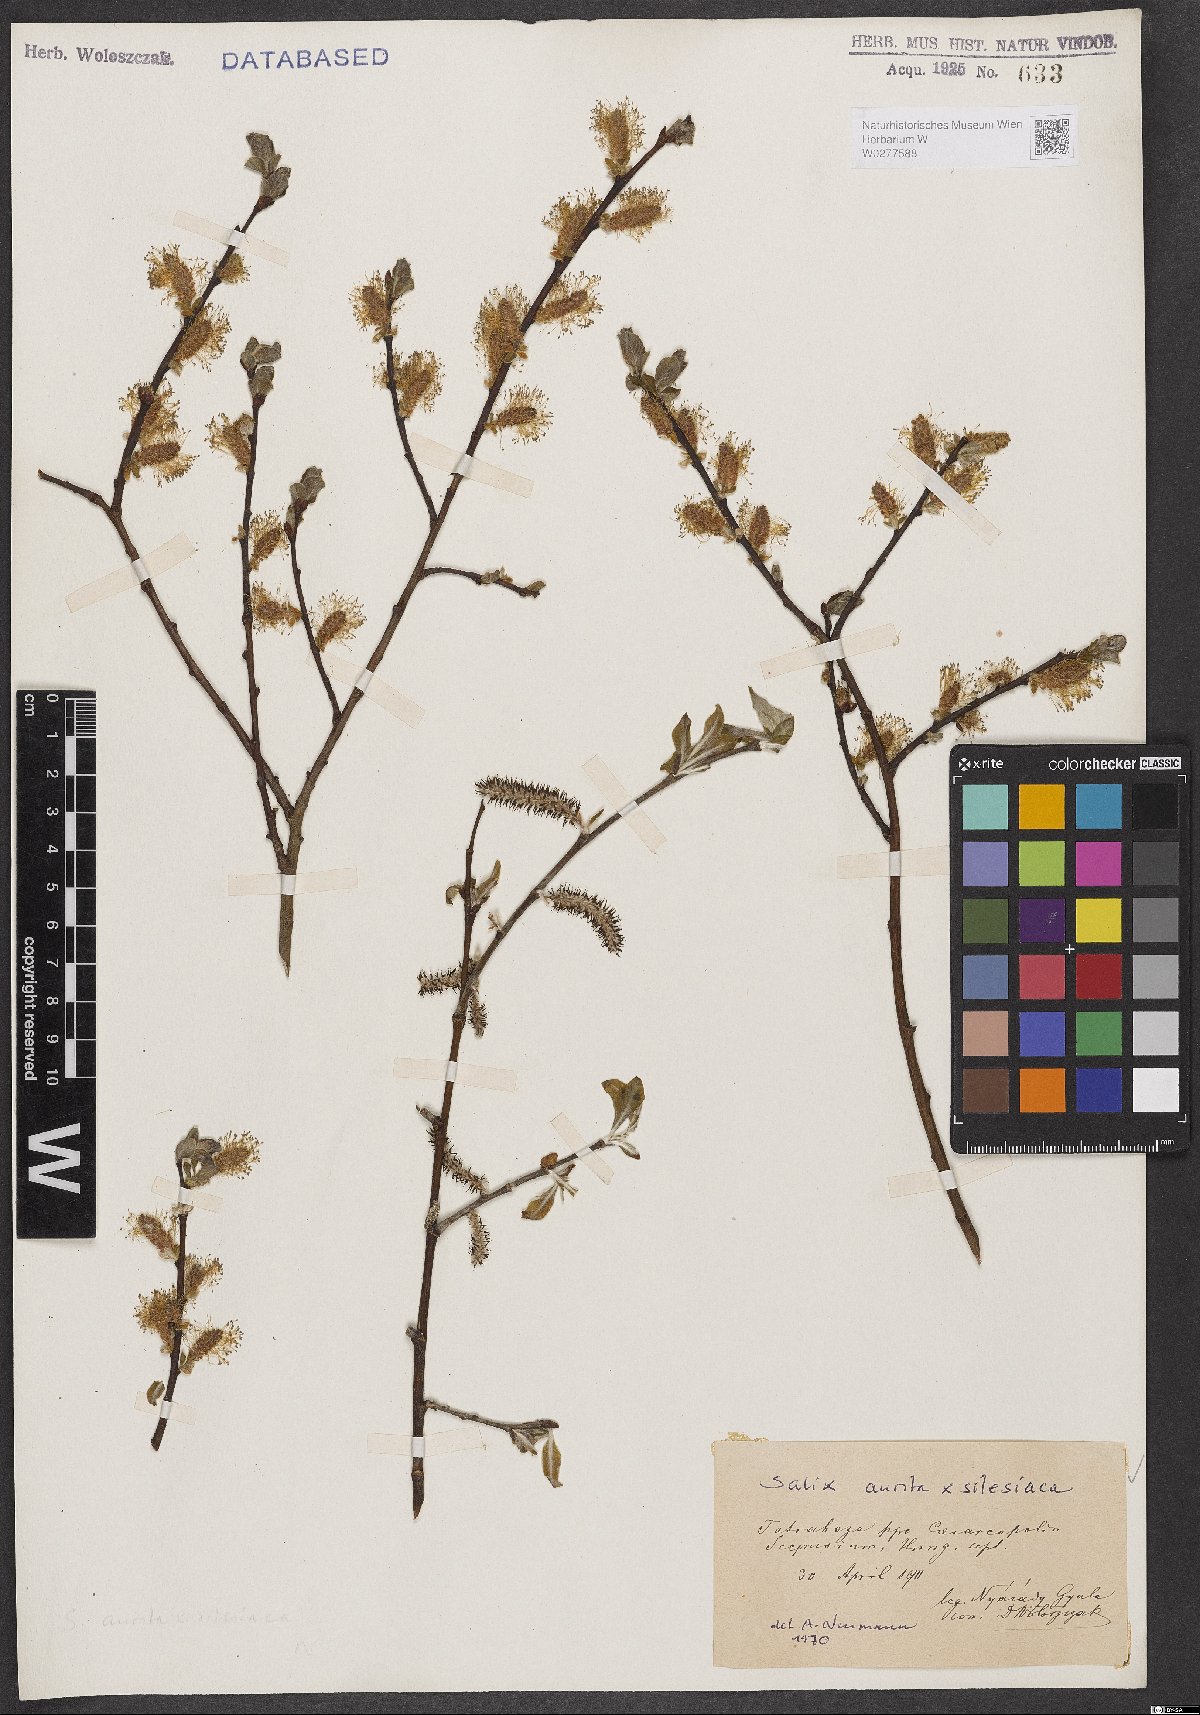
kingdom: Plantae
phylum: Tracheophyta
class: Magnoliopsida
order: Malpighiales
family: Salicaceae
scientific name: Salicaceae
